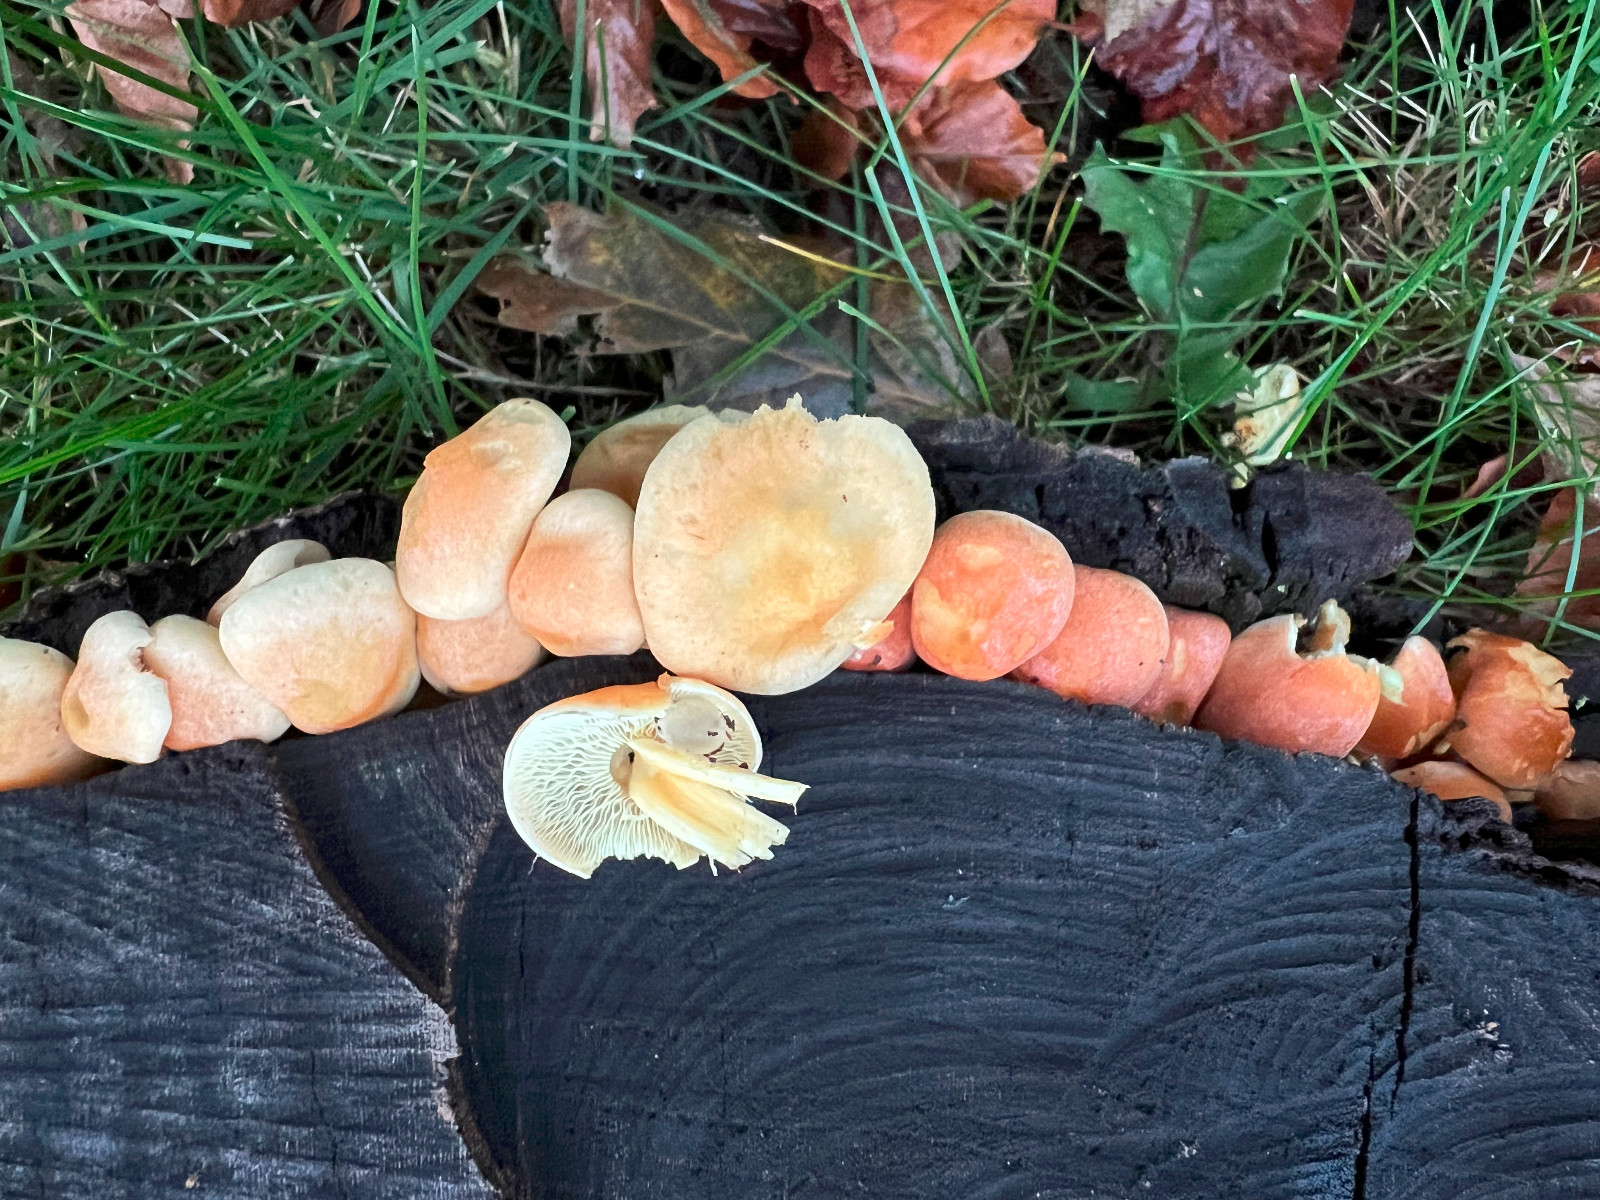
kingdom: Fungi
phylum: Basidiomycota
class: Agaricomycetes
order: Agaricales
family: Strophariaceae
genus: Hypholoma
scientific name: Hypholoma fasciculare
